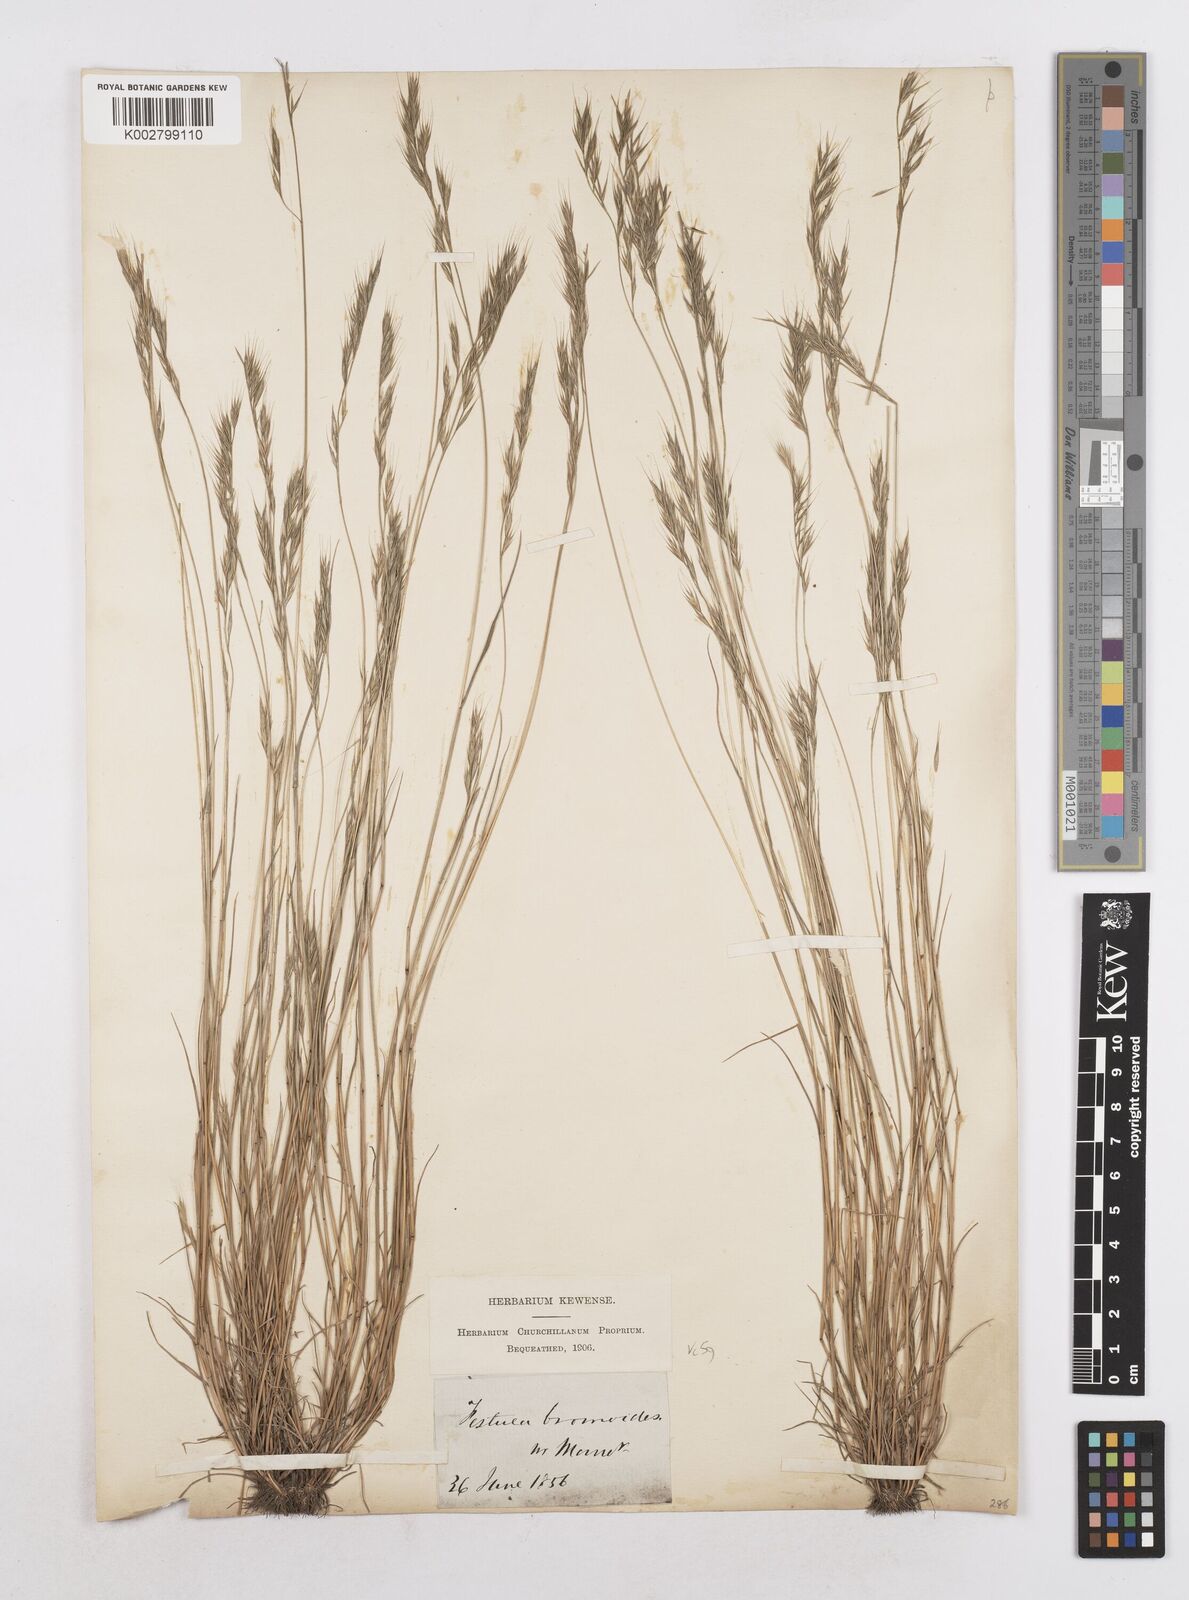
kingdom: Plantae
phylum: Tracheophyta
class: Liliopsida
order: Poales
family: Poaceae
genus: Festuca
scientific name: Festuca bromoides
